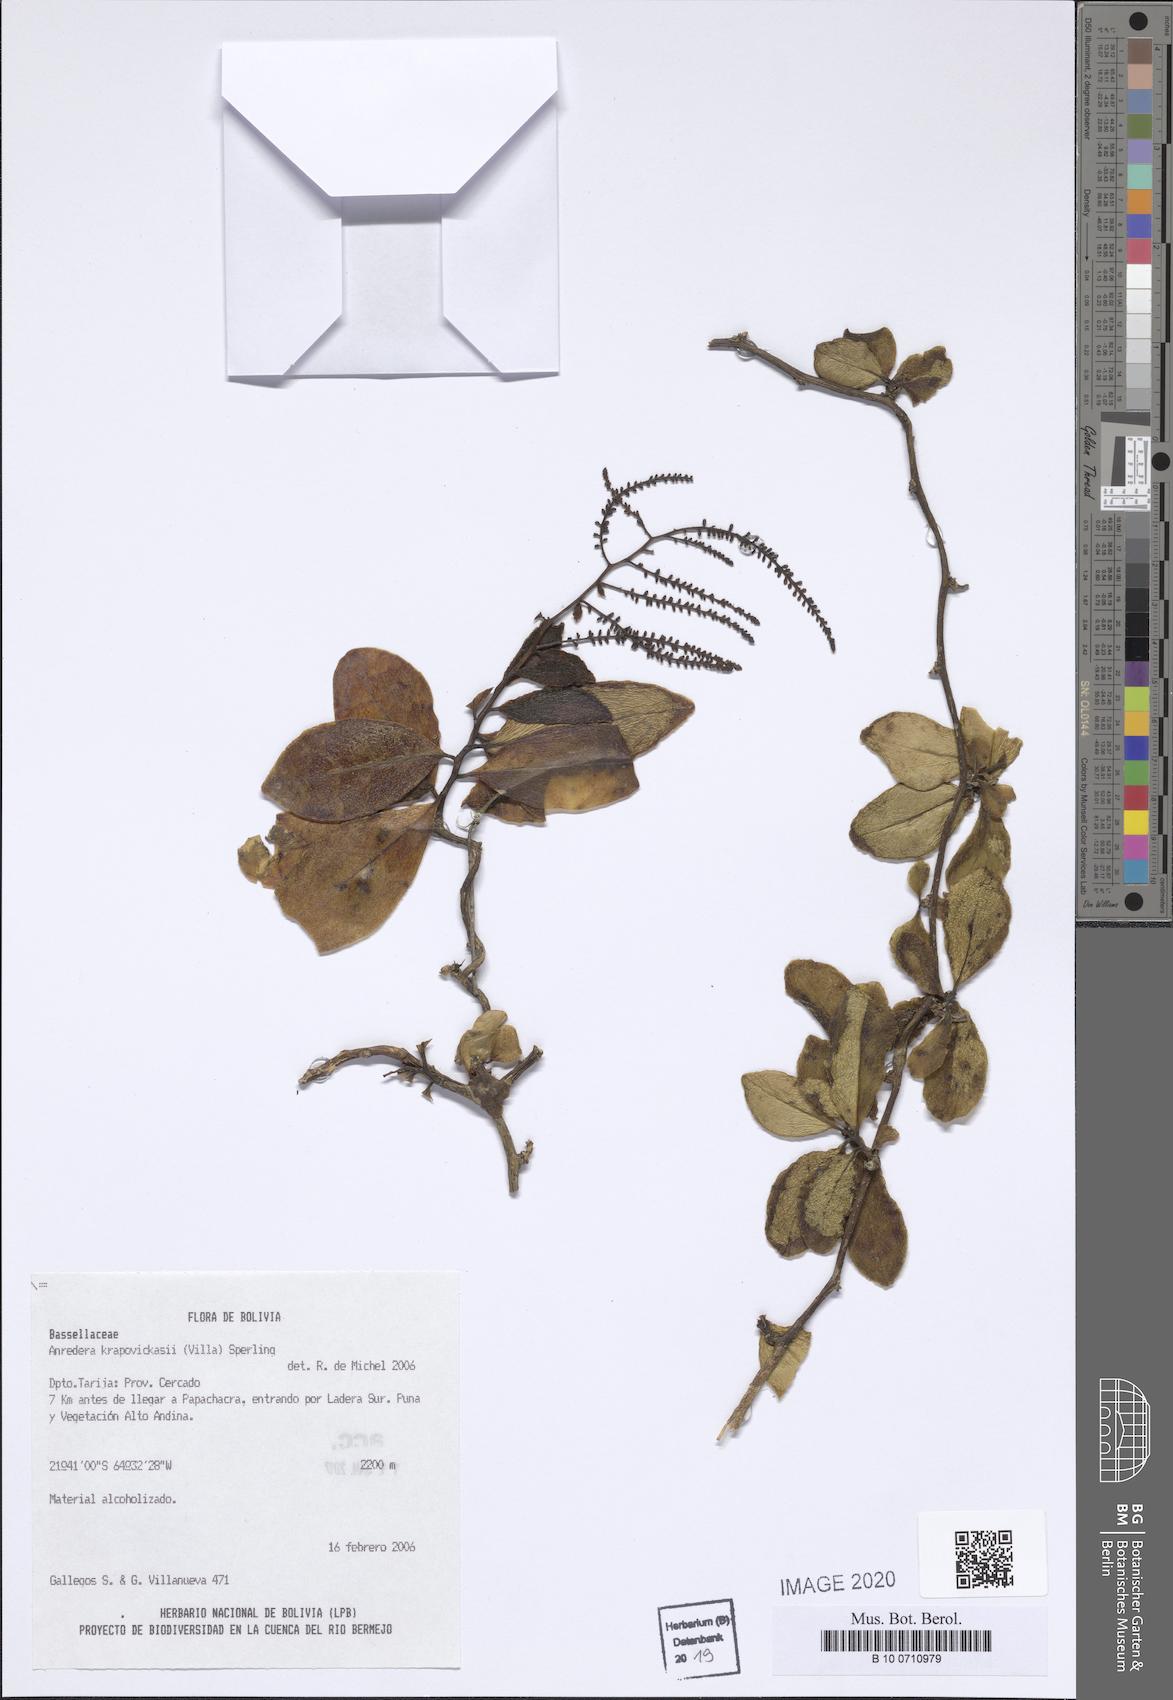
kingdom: Plantae
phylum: Tracheophyta
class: Magnoliopsida
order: Caryophyllales
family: Basellaceae
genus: Anredera
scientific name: Anredera krapovickasii
